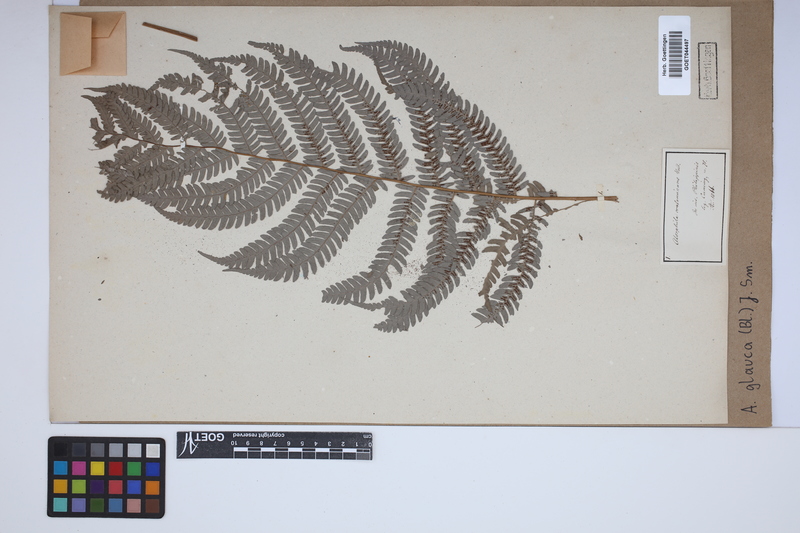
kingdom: Plantae
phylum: Tracheophyta
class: Polypodiopsida
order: Cyatheales
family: Cyatheaceae
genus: Sphaeropteris
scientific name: Sphaeropteris glauca
